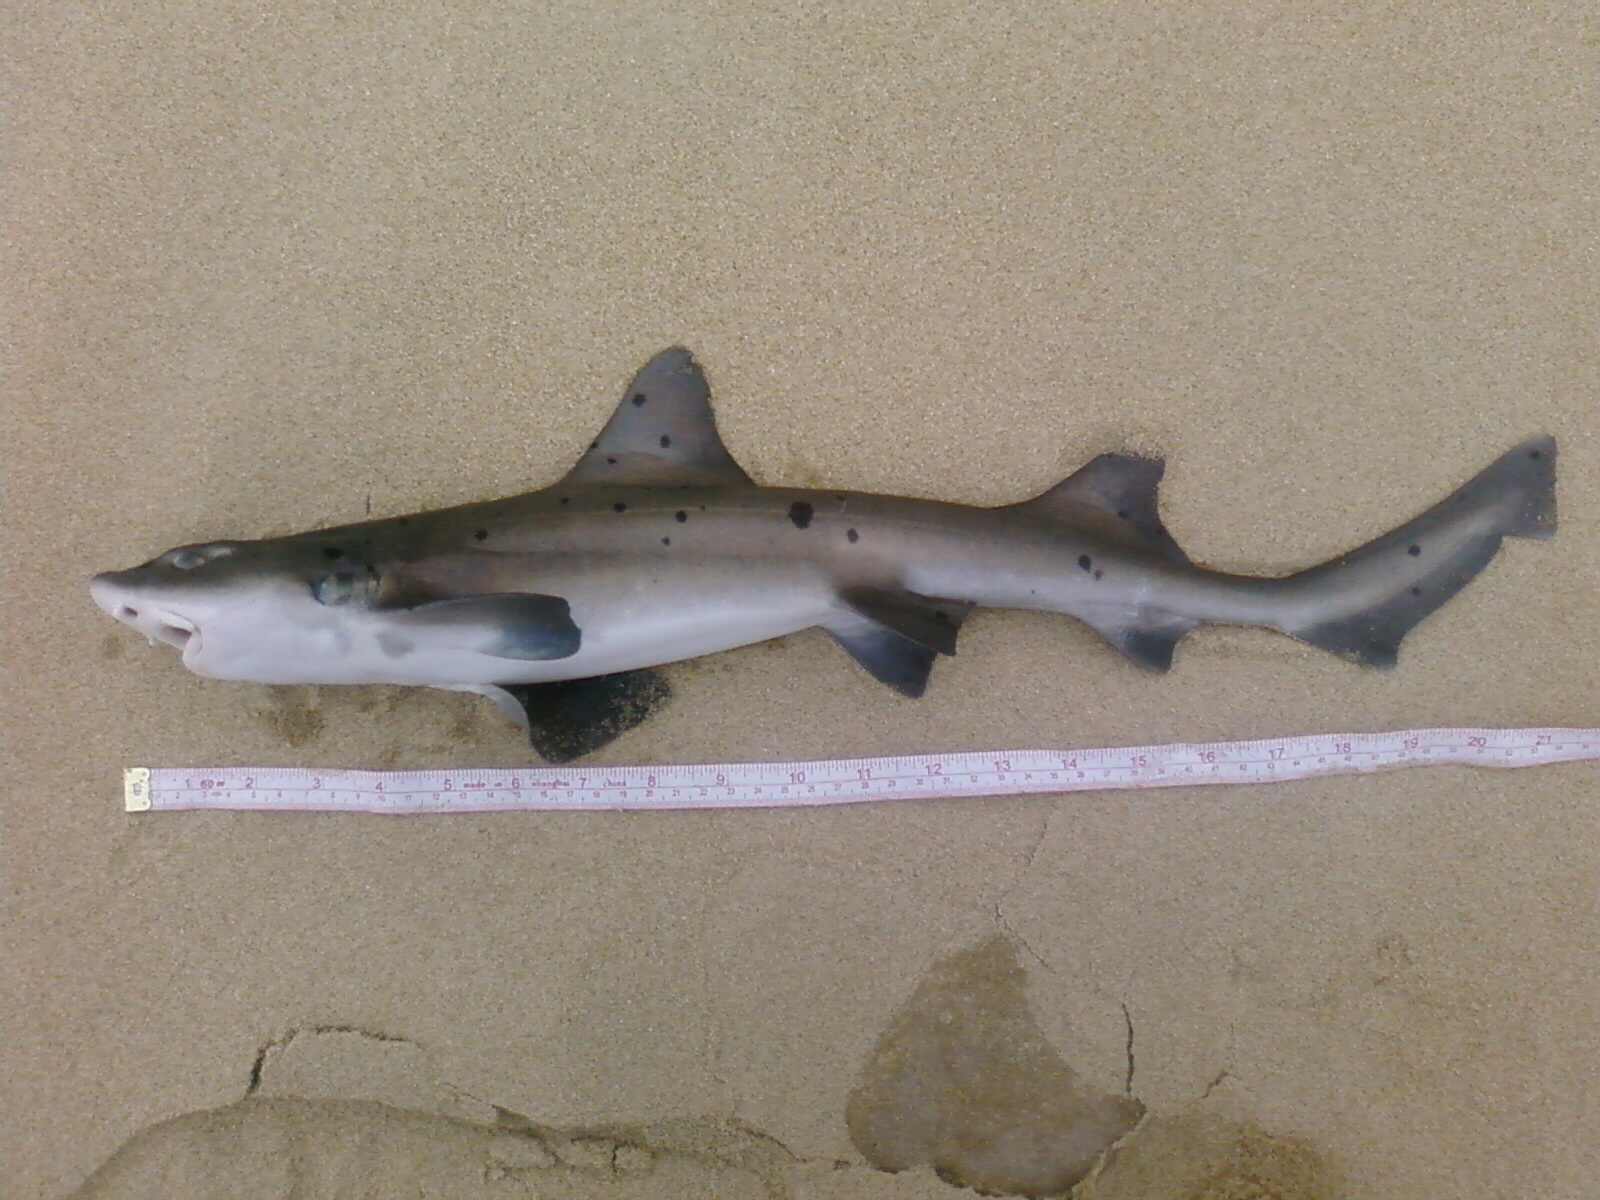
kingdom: Animalia
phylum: Chordata
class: Elasmobranchii
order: Carcharhiniformes
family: Triakidae
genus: Triakis
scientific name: Triakis megalopterus
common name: Spotted gully shark
